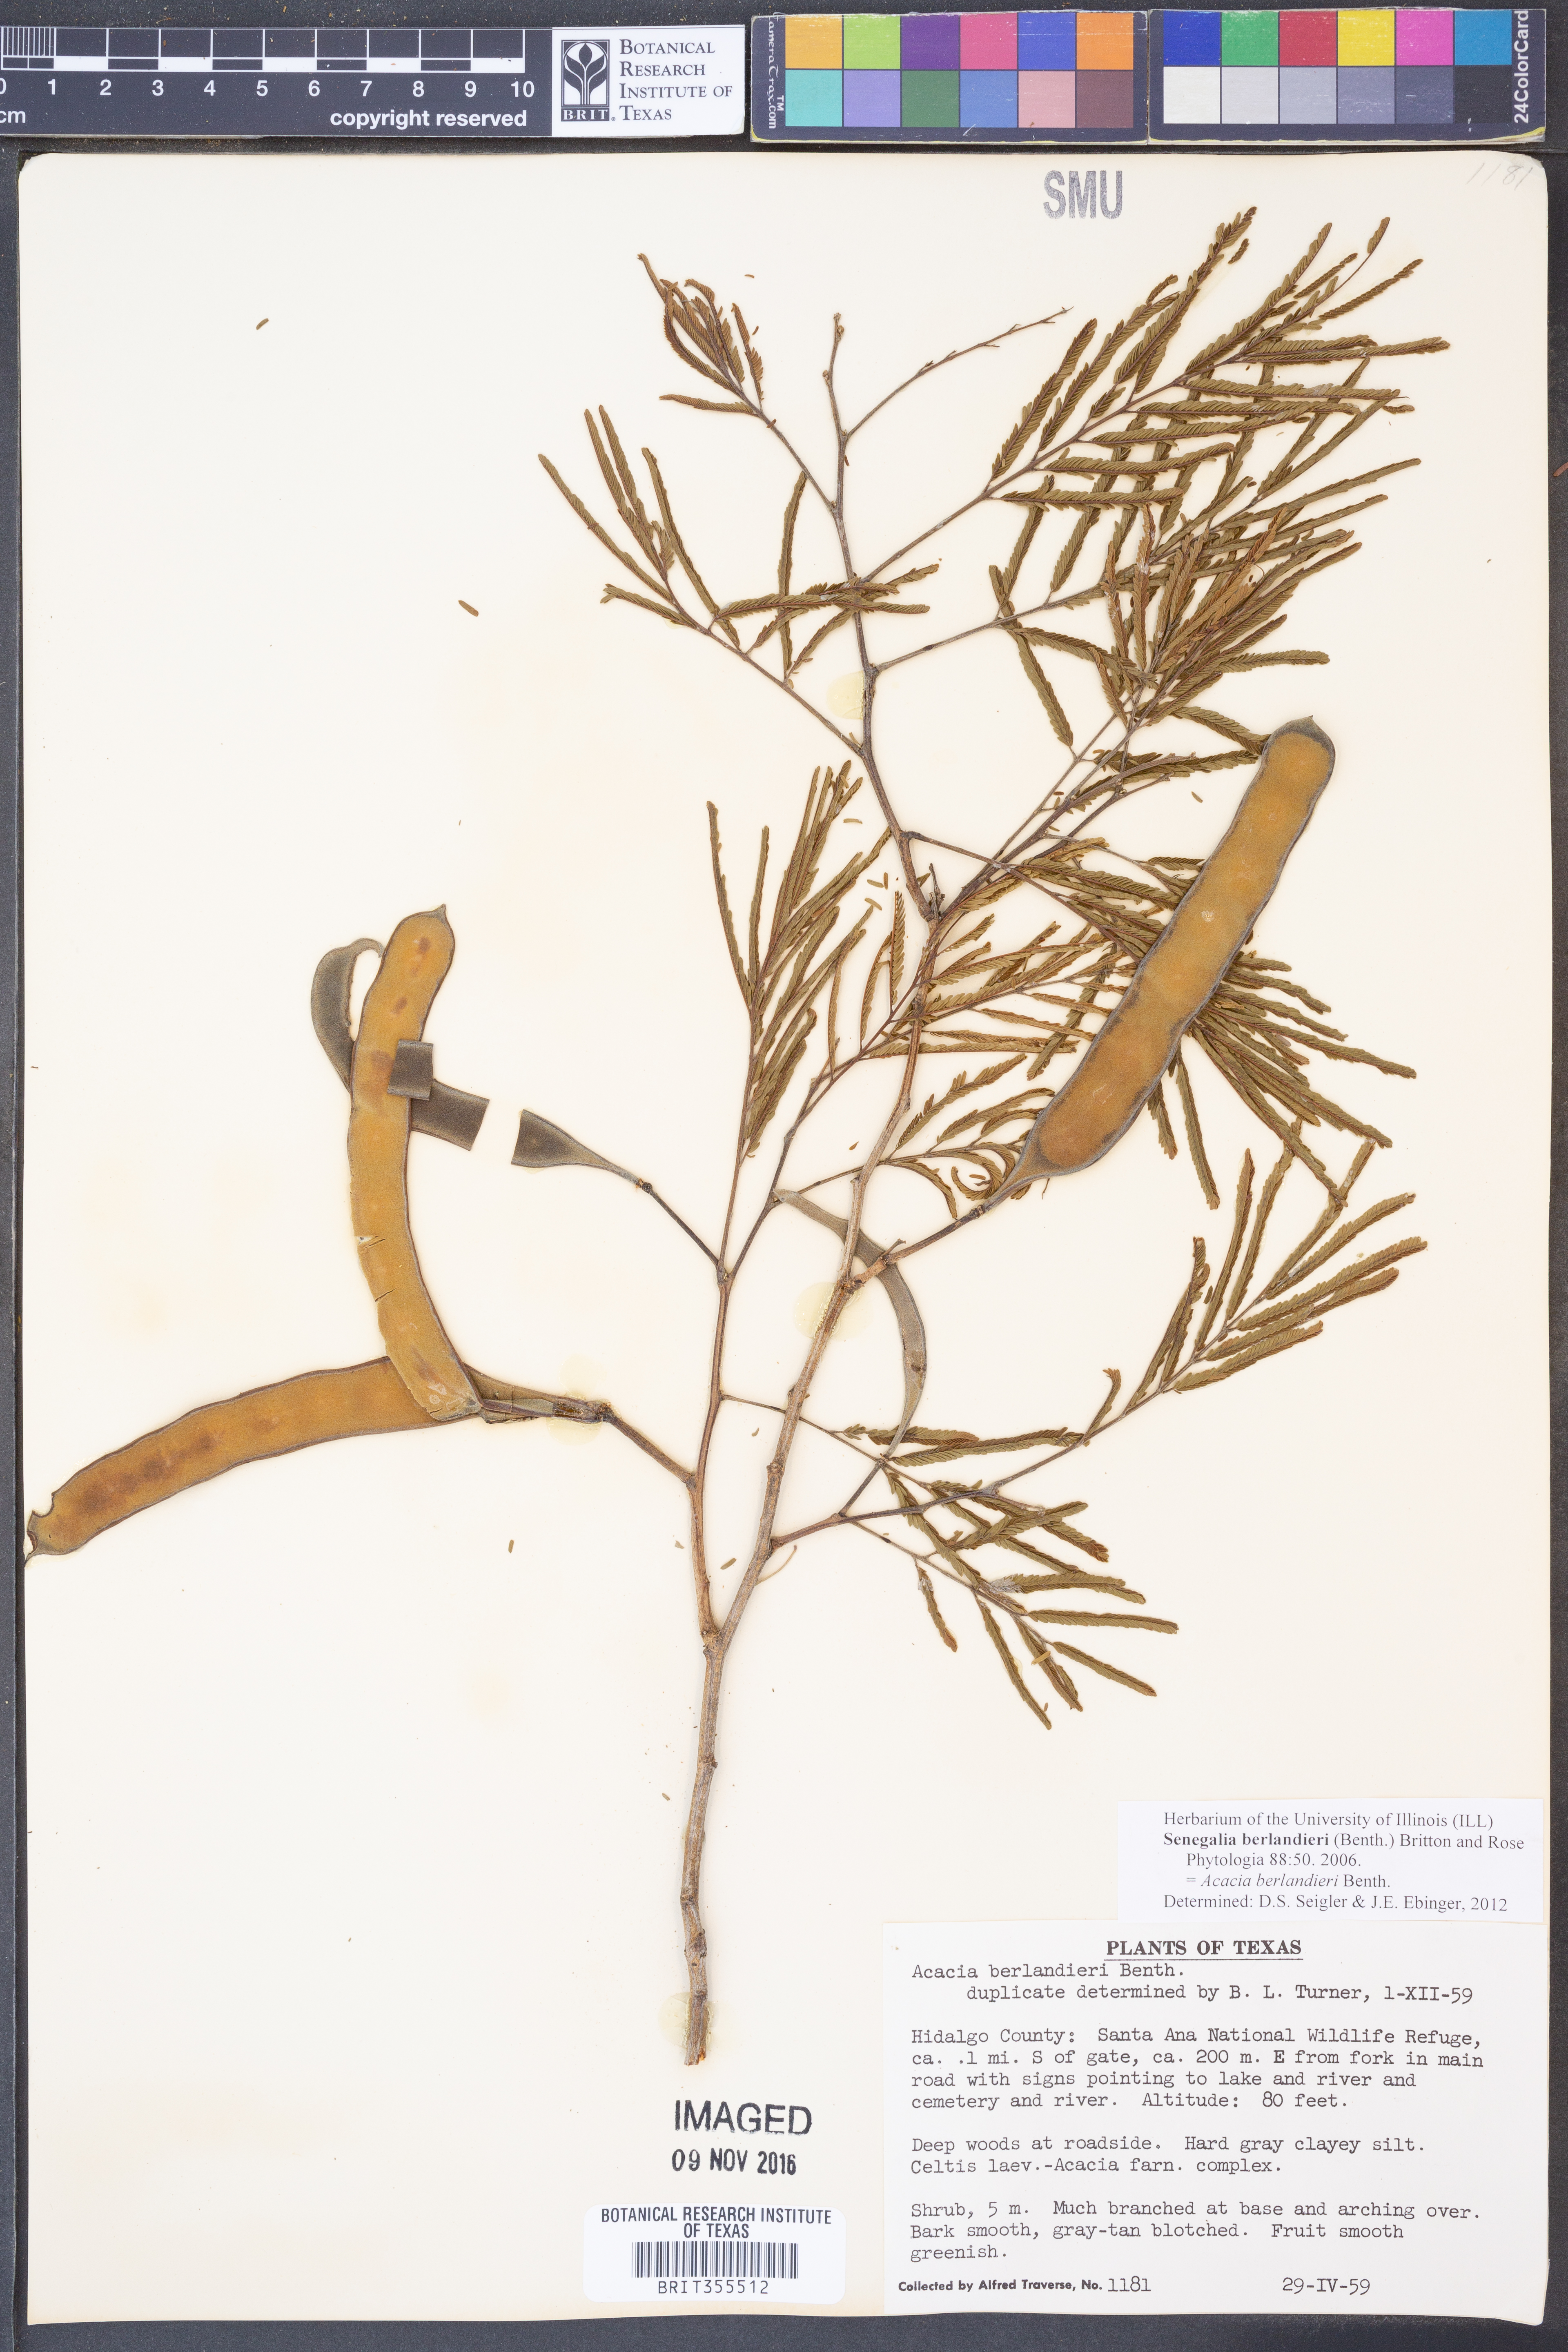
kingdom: Plantae
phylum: Tracheophyta
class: Magnoliopsida
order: Fabales
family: Fabaceae
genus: Senegalia
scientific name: Senegalia berlandieri
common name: Berlandier acacia
